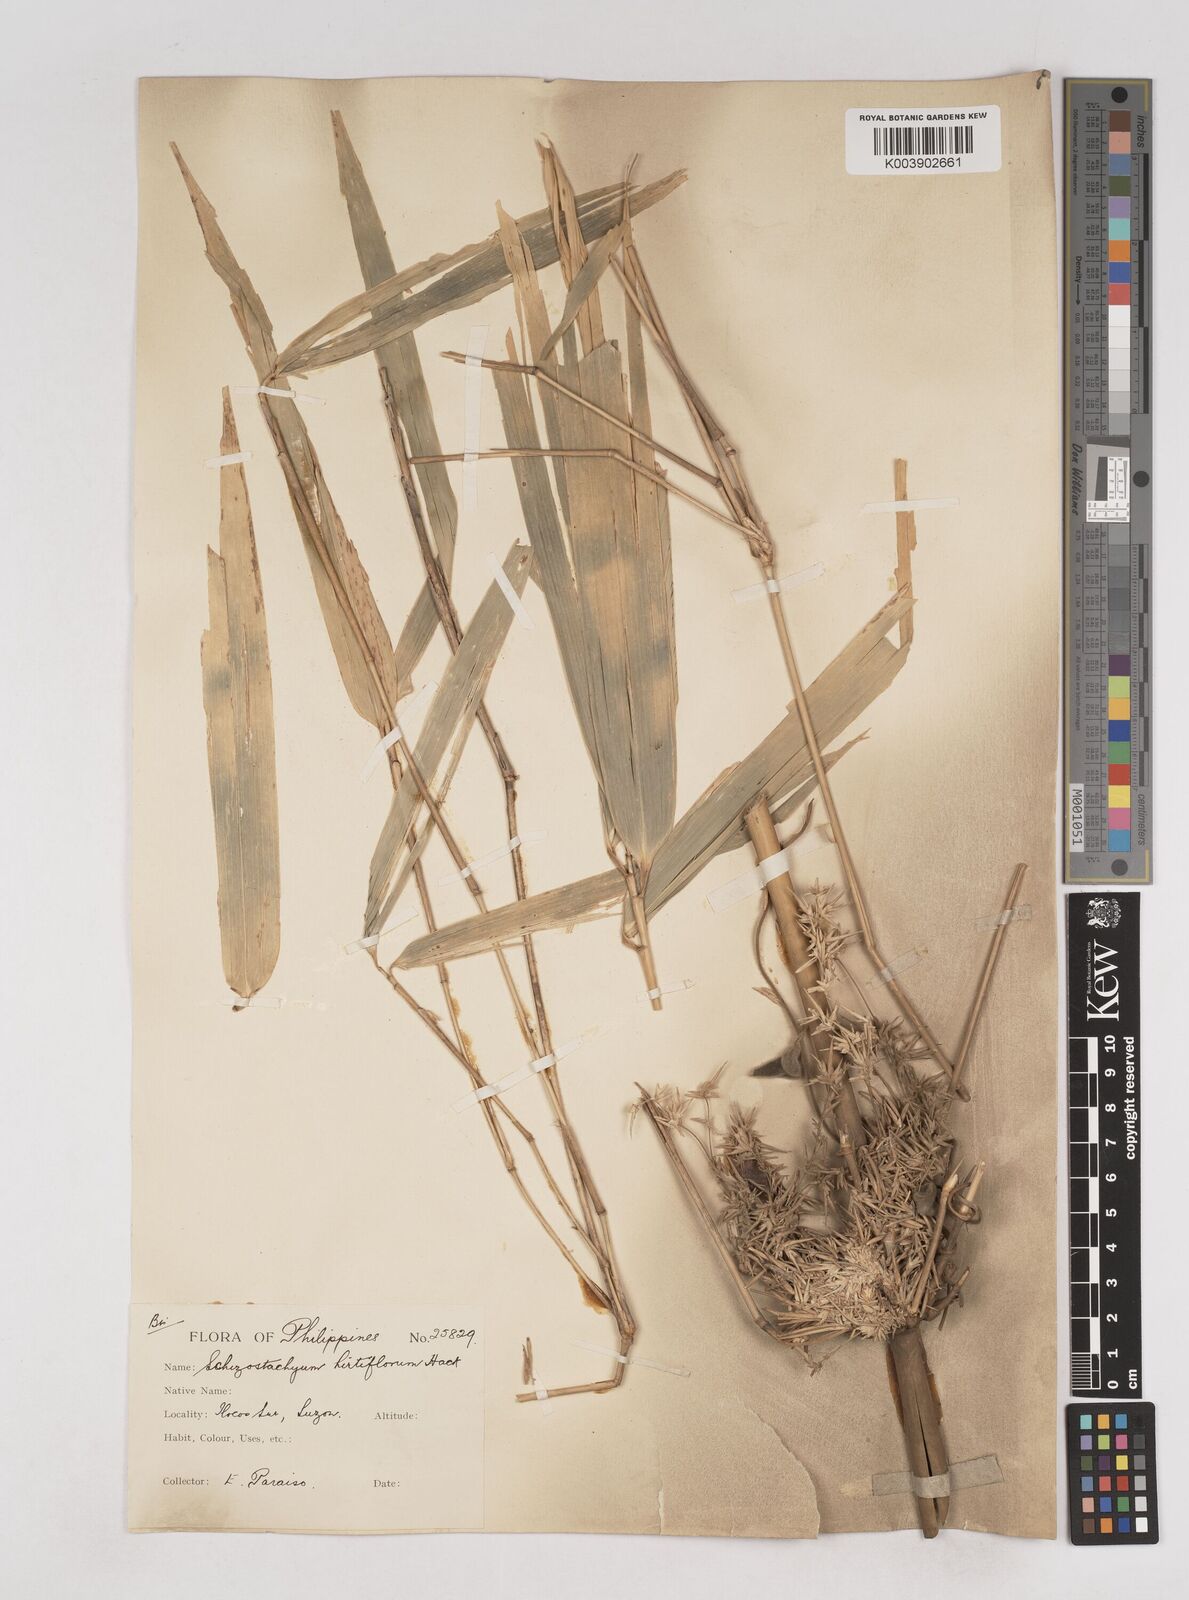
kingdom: Plantae
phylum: Tracheophyta
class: Liliopsida
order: Poales
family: Poaceae
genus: Schizostachyum
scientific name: Schizostachyum lumampao
